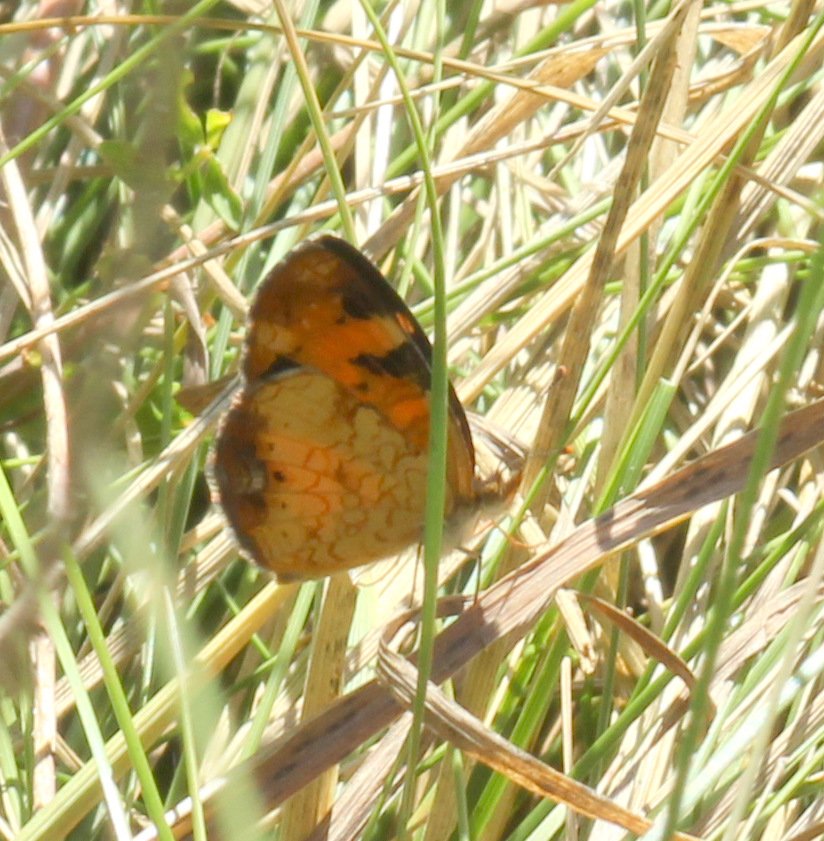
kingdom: Animalia
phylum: Arthropoda
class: Insecta
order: Lepidoptera
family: Nymphalidae
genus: Phyciodes
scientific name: Phyciodes tharos
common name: Northern Crescent
